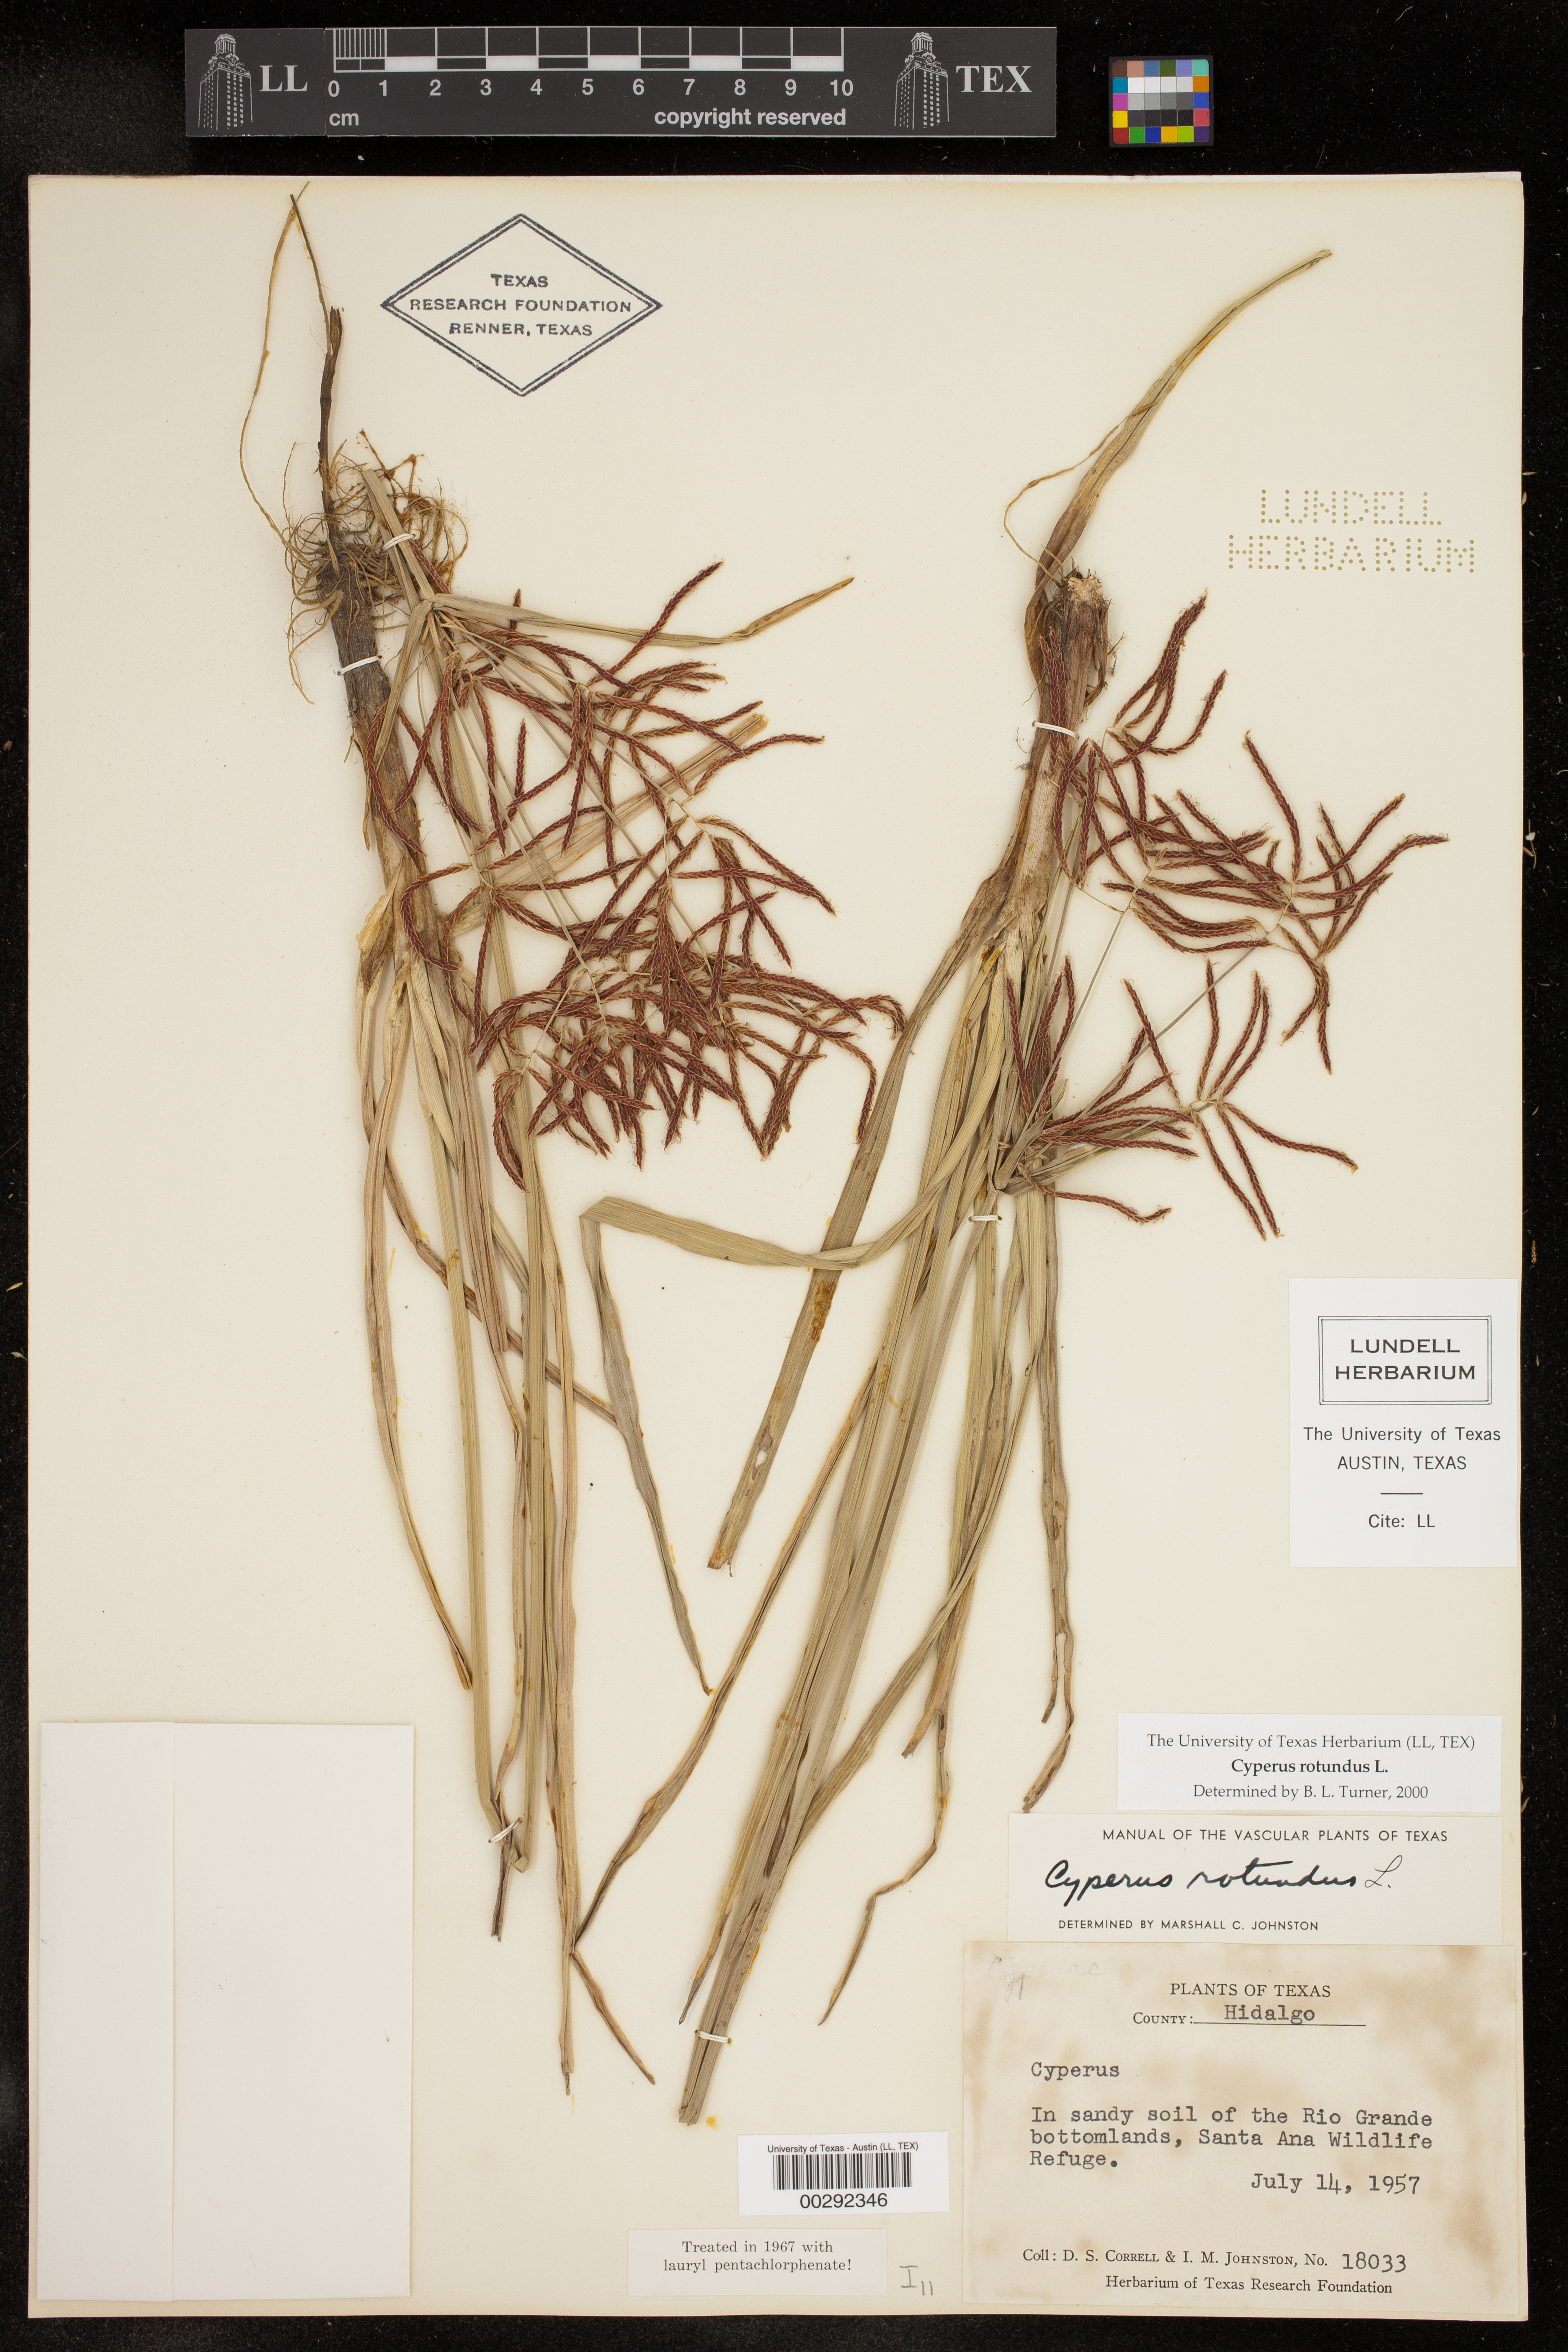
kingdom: Plantae
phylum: Tracheophyta
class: Liliopsida
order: Poales
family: Cyperaceae
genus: Cyperus
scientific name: Cyperus rotundus
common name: Nutgrass
